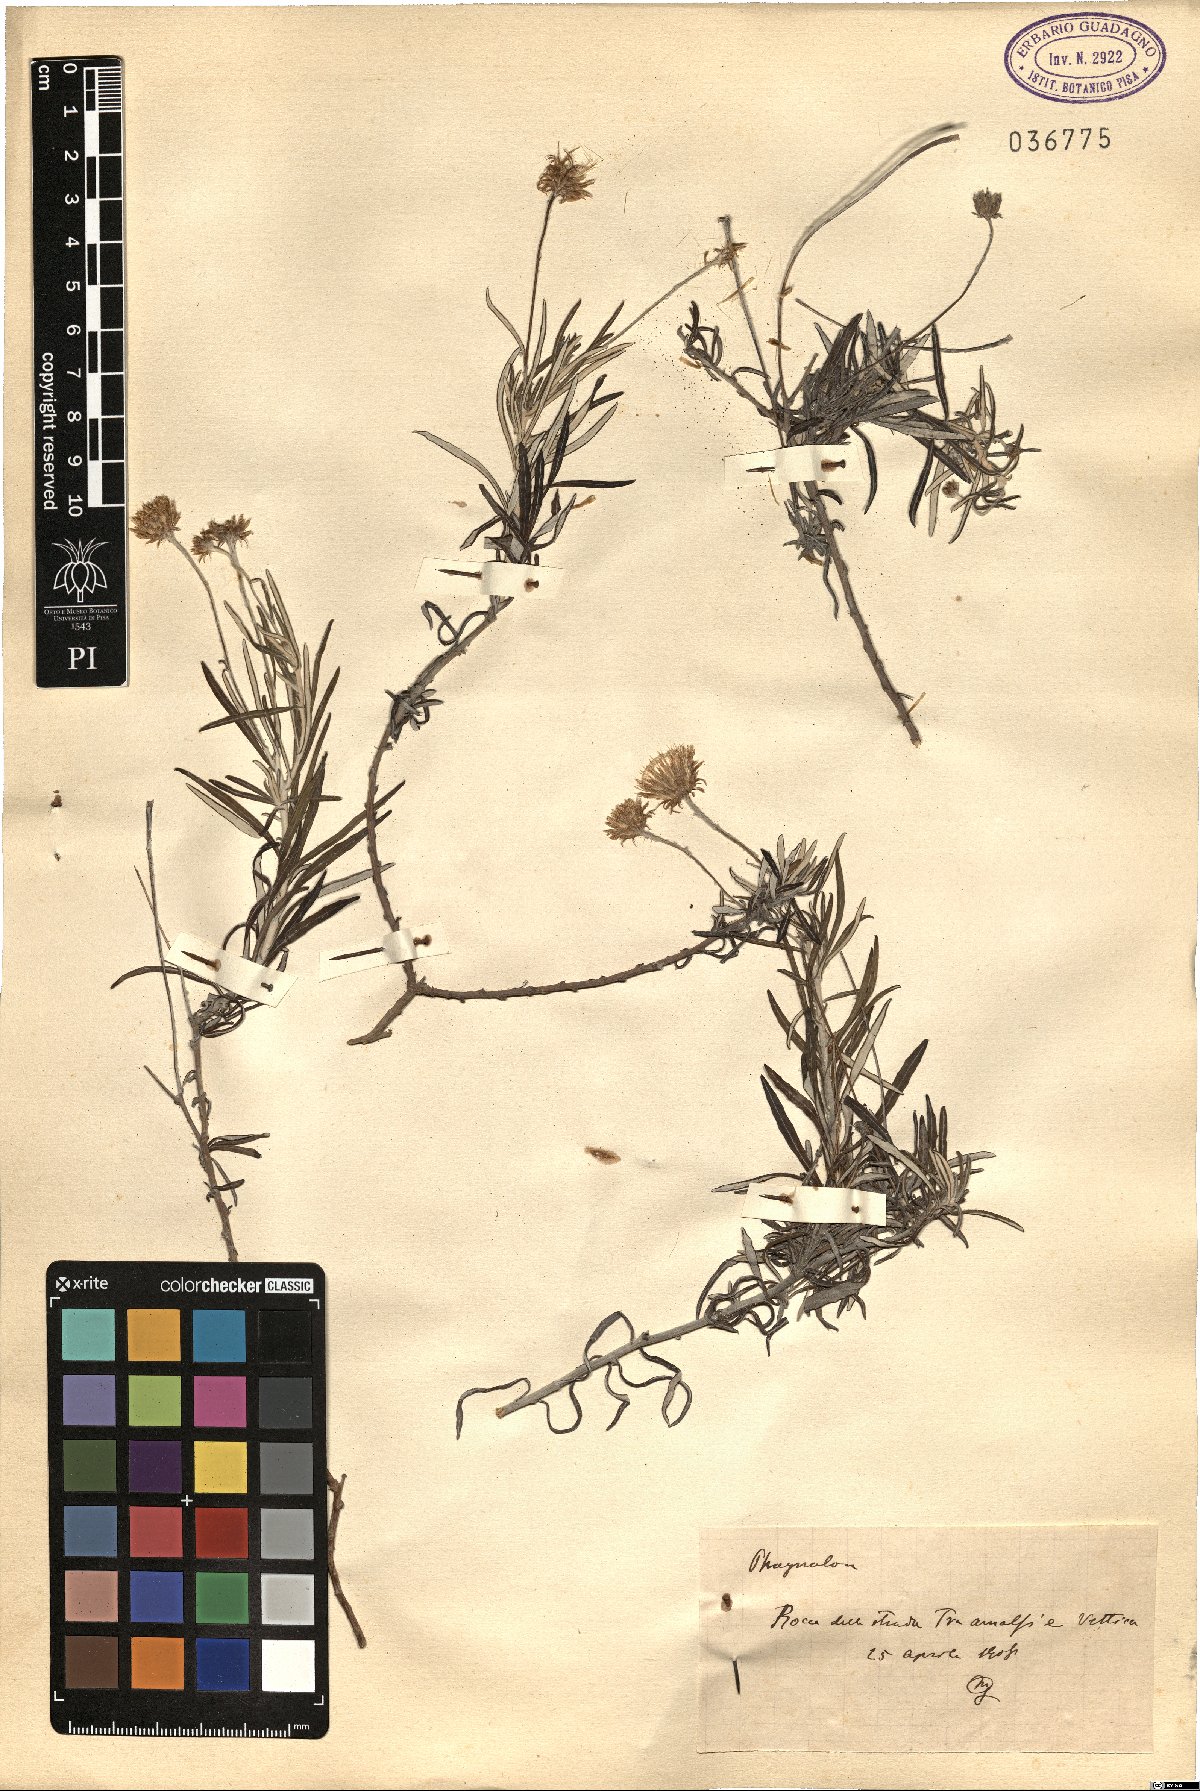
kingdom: Plantae
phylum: Tracheophyta
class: Magnoliopsida
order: Asterales
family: Asteraceae
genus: Phagnalon
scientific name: Phagnalon
